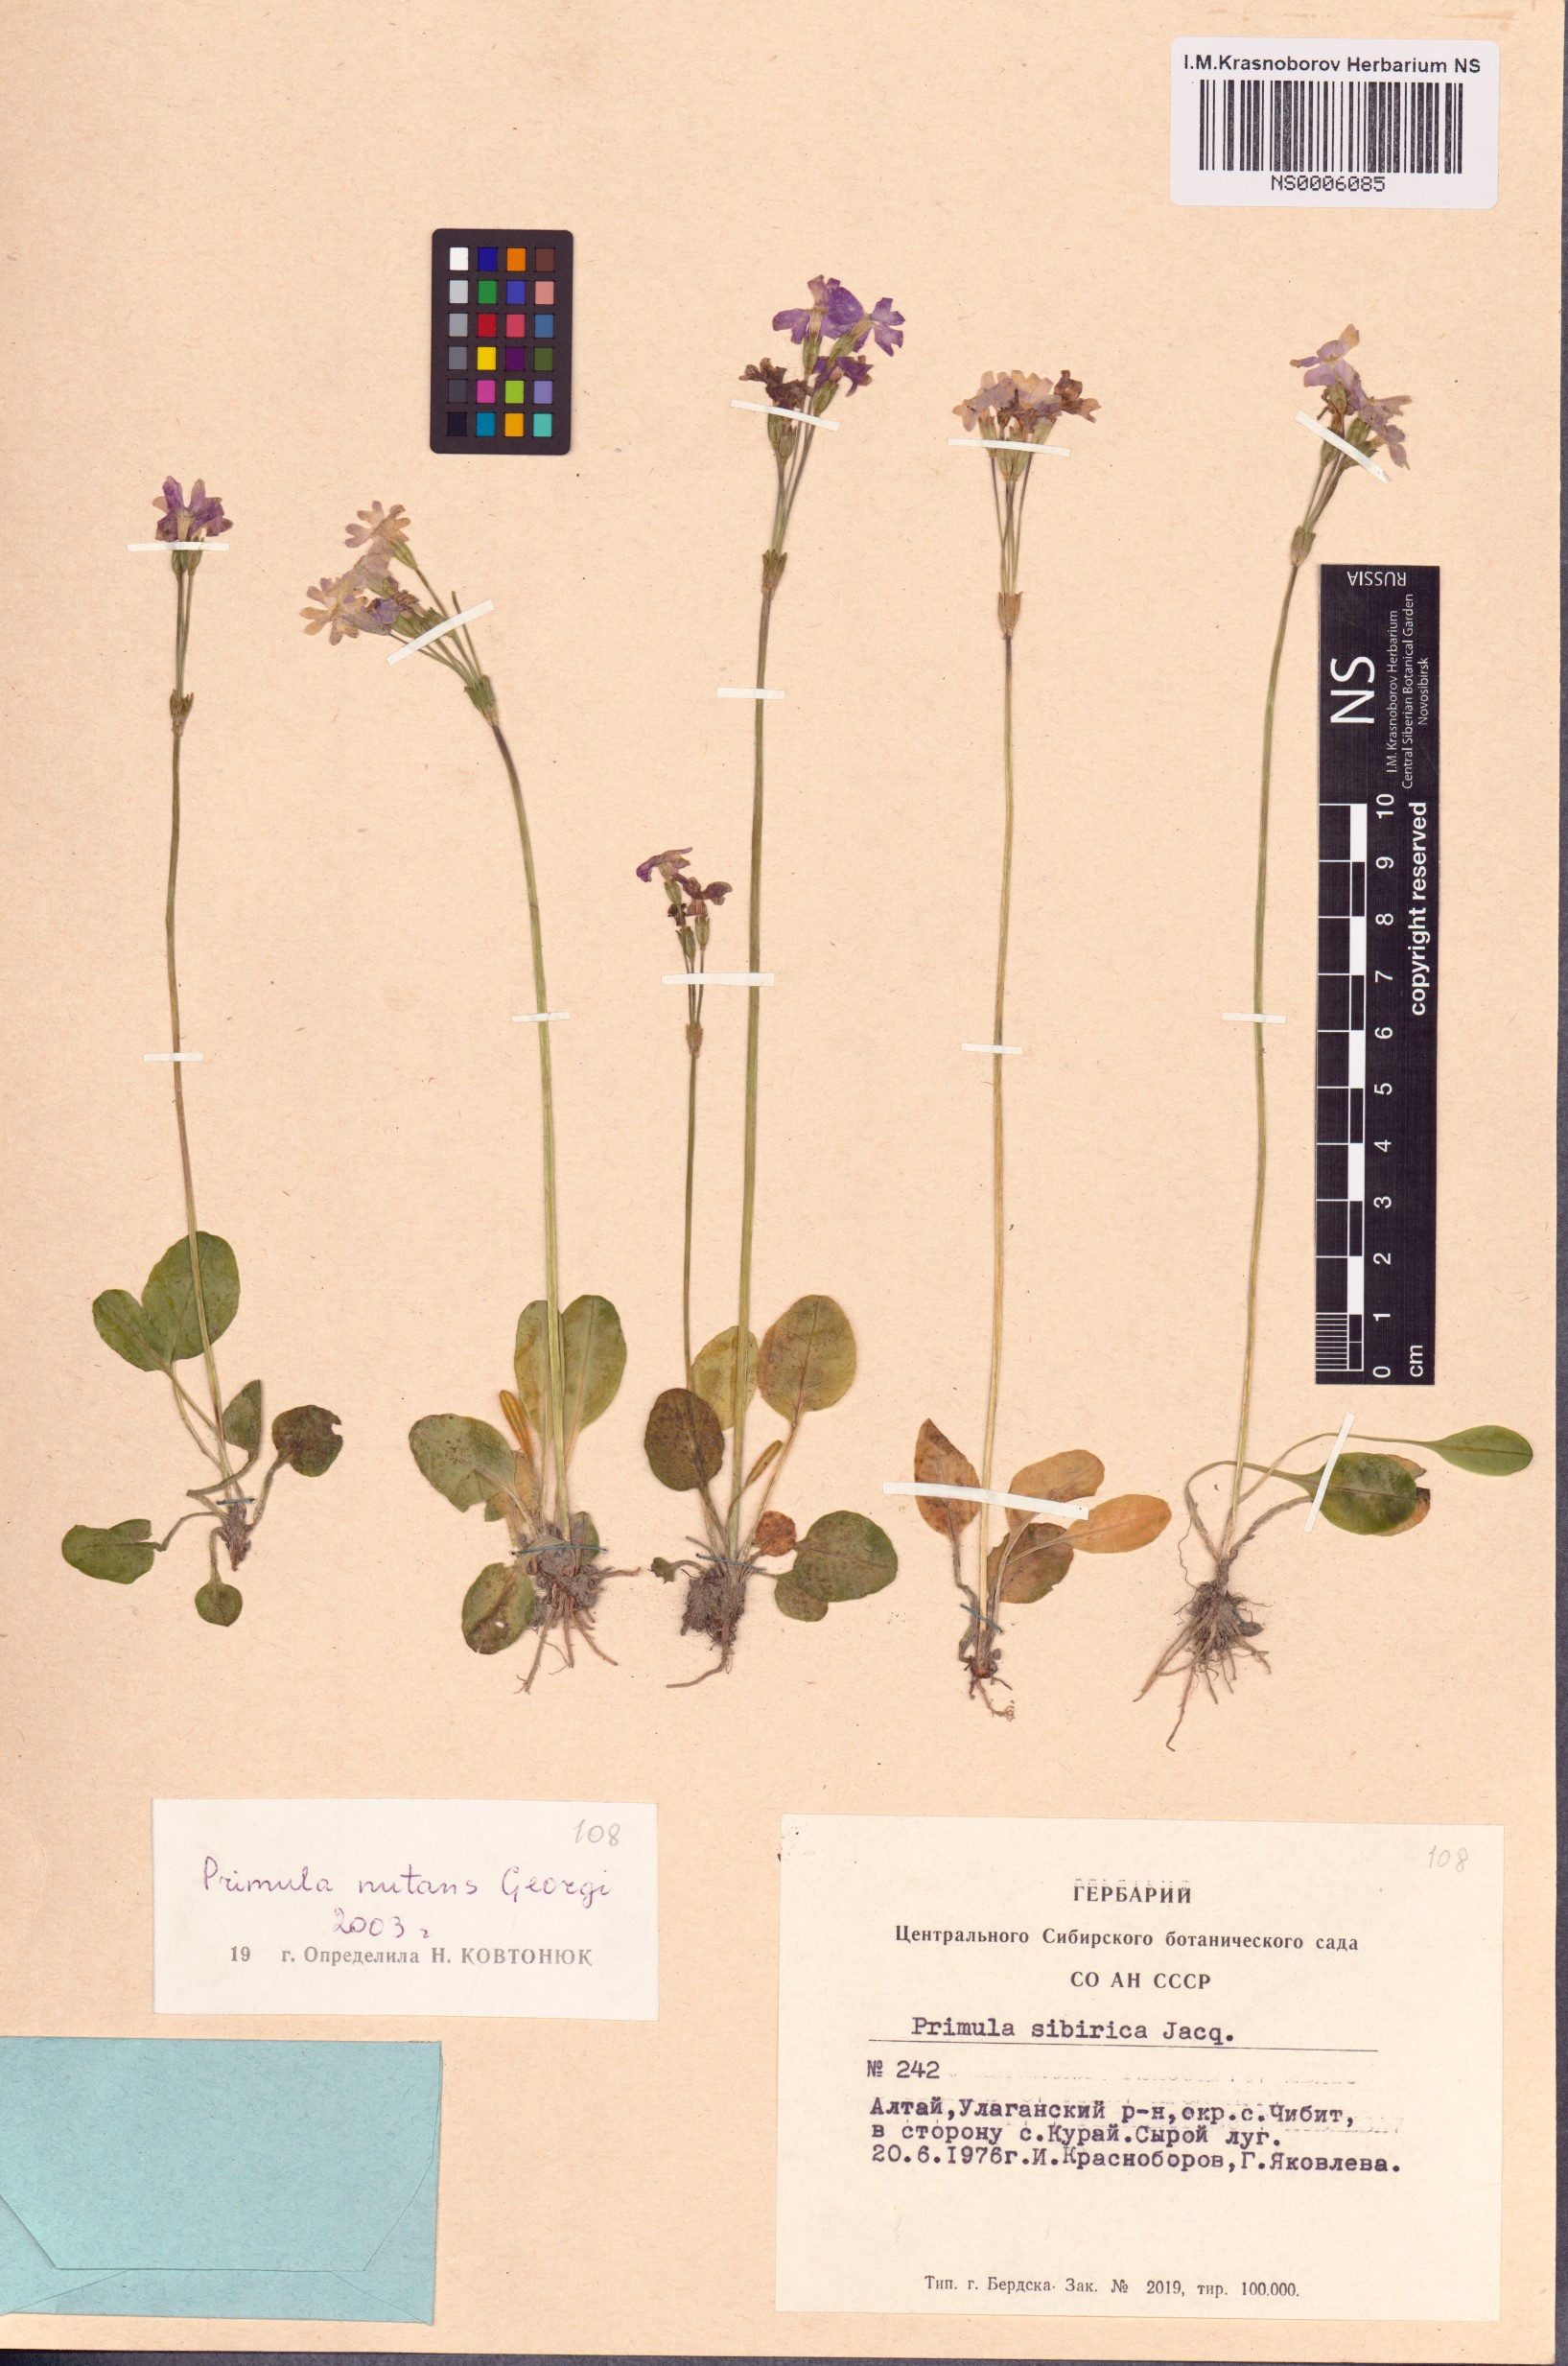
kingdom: Plantae
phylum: Tracheophyta
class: Magnoliopsida
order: Ericales
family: Primulaceae
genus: Primula
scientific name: Primula nutans
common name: Siberian primrose
